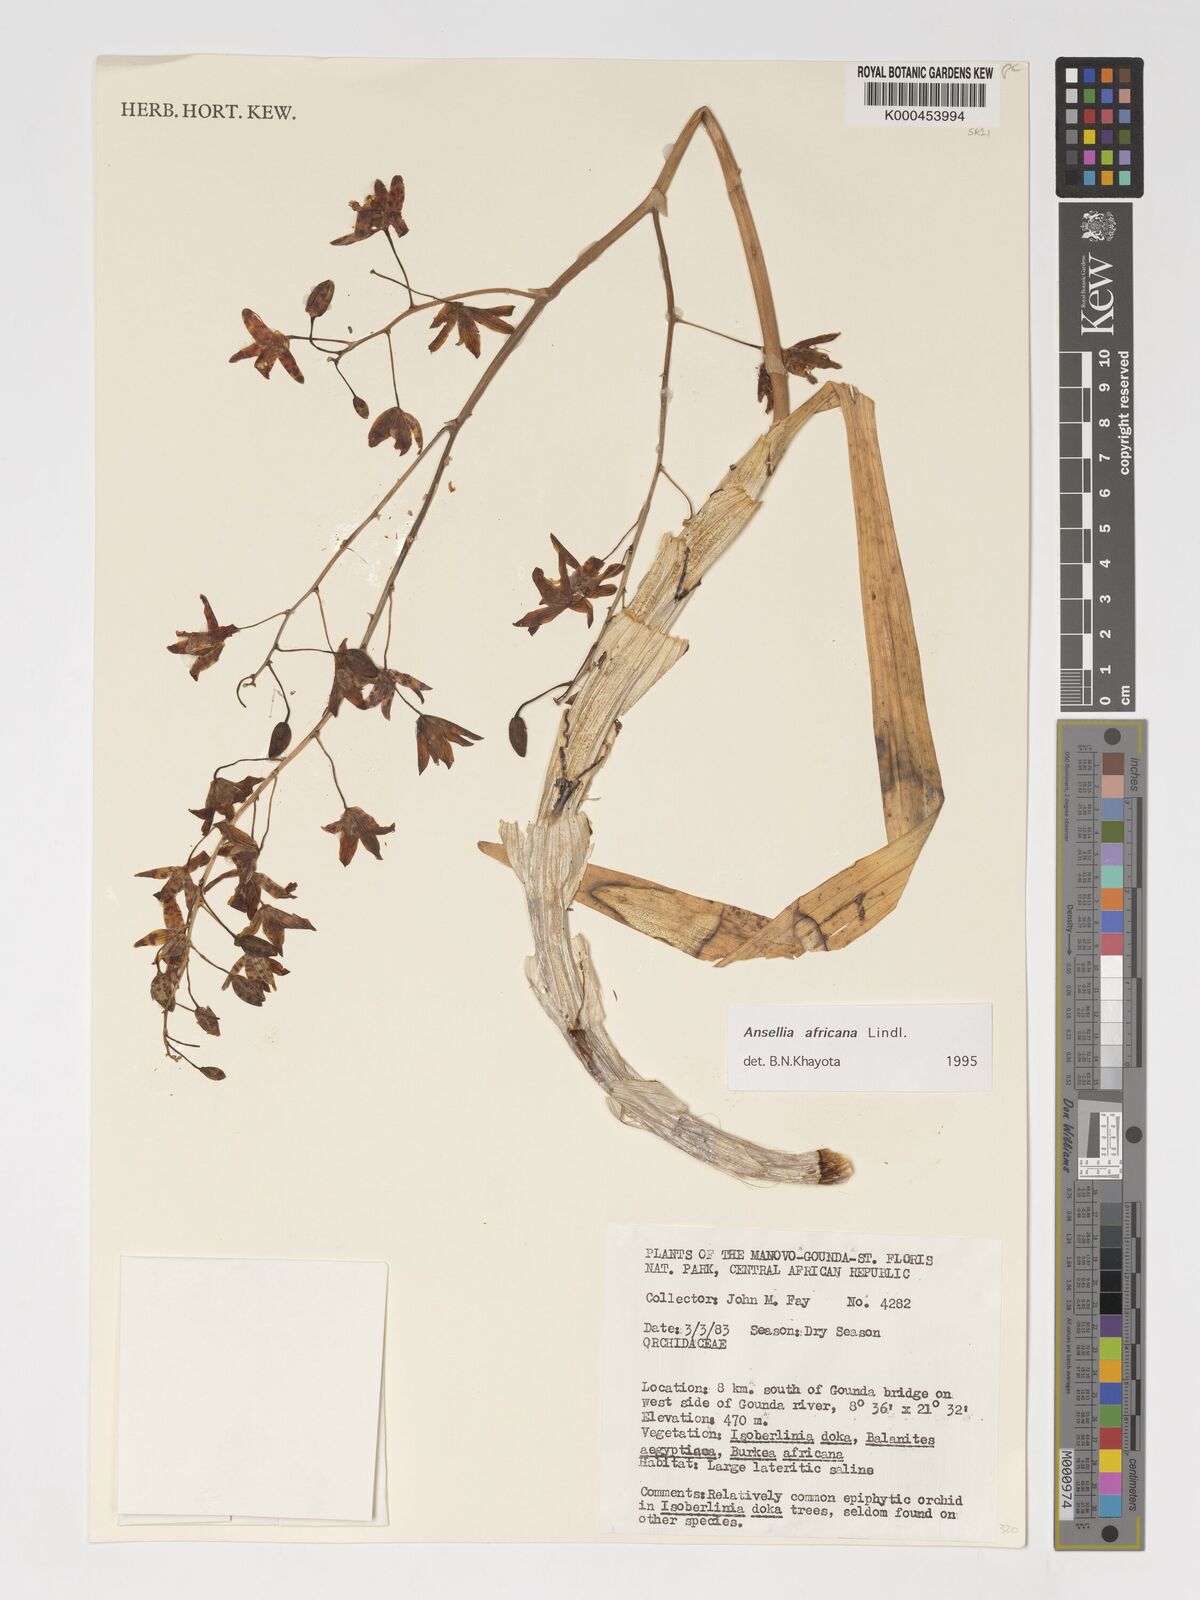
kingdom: Plantae
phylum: Tracheophyta
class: Liliopsida
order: Asparagales
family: Orchidaceae
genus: Ansellia
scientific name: Ansellia africana
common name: African ansellia
